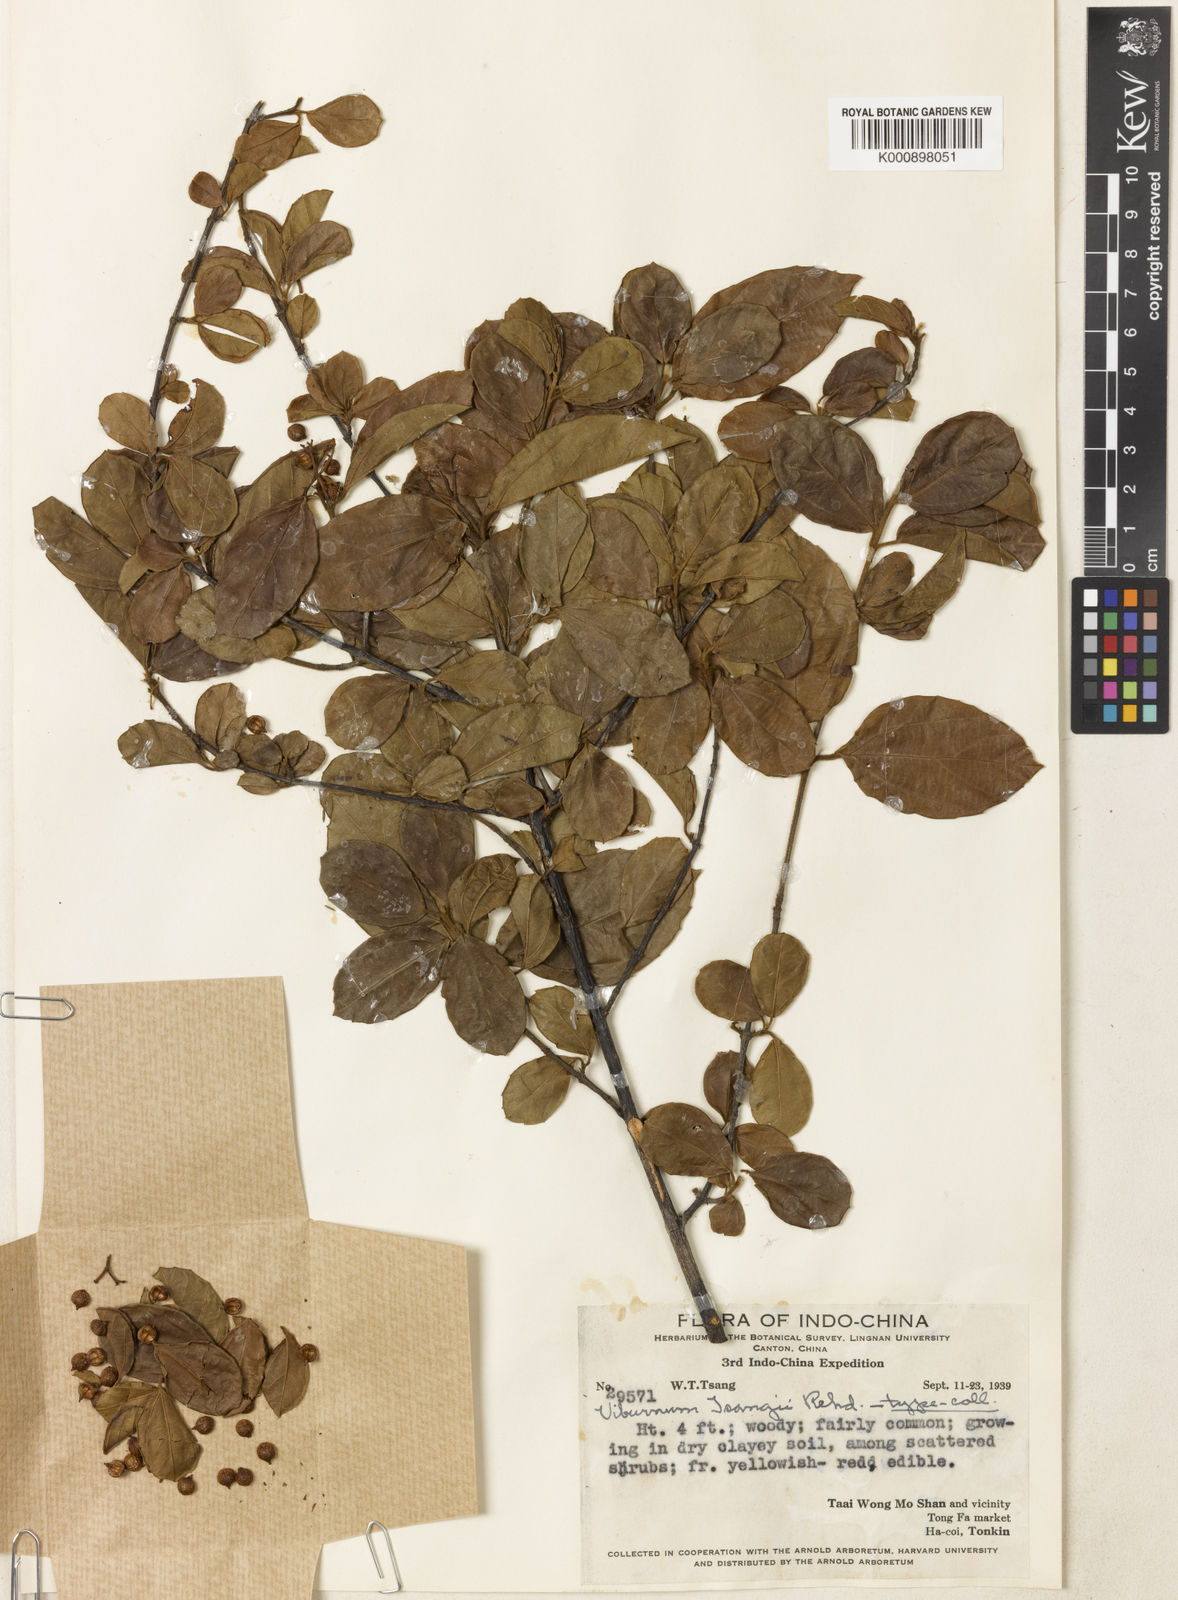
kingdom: Plantae
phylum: Tracheophyta
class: Magnoliopsida
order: Dipsacales
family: Viburnaceae
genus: Viburnum
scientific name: Viburnum hainanense
